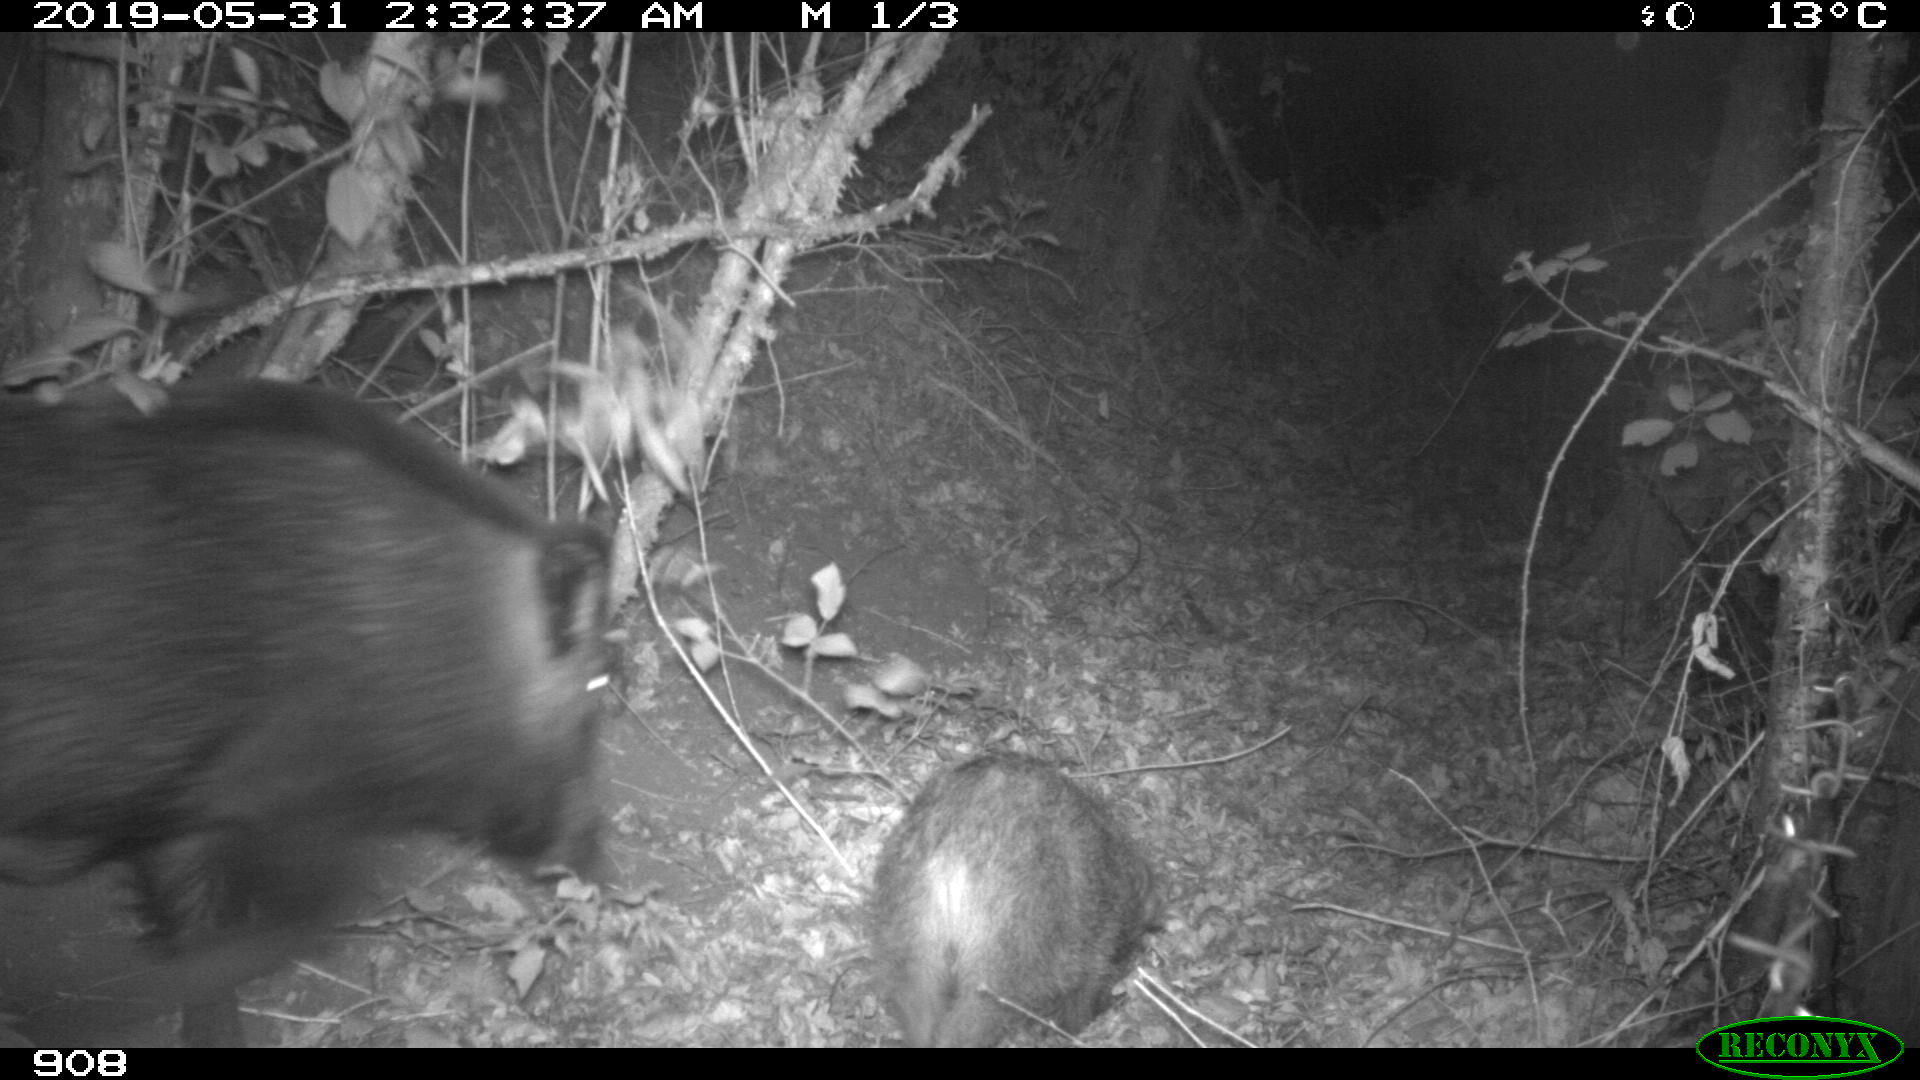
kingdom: Animalia
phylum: Chordata
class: Mammalia
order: Artiodactyla
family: Suidae
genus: Sus
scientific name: Sus scrofa
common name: Wild boar
